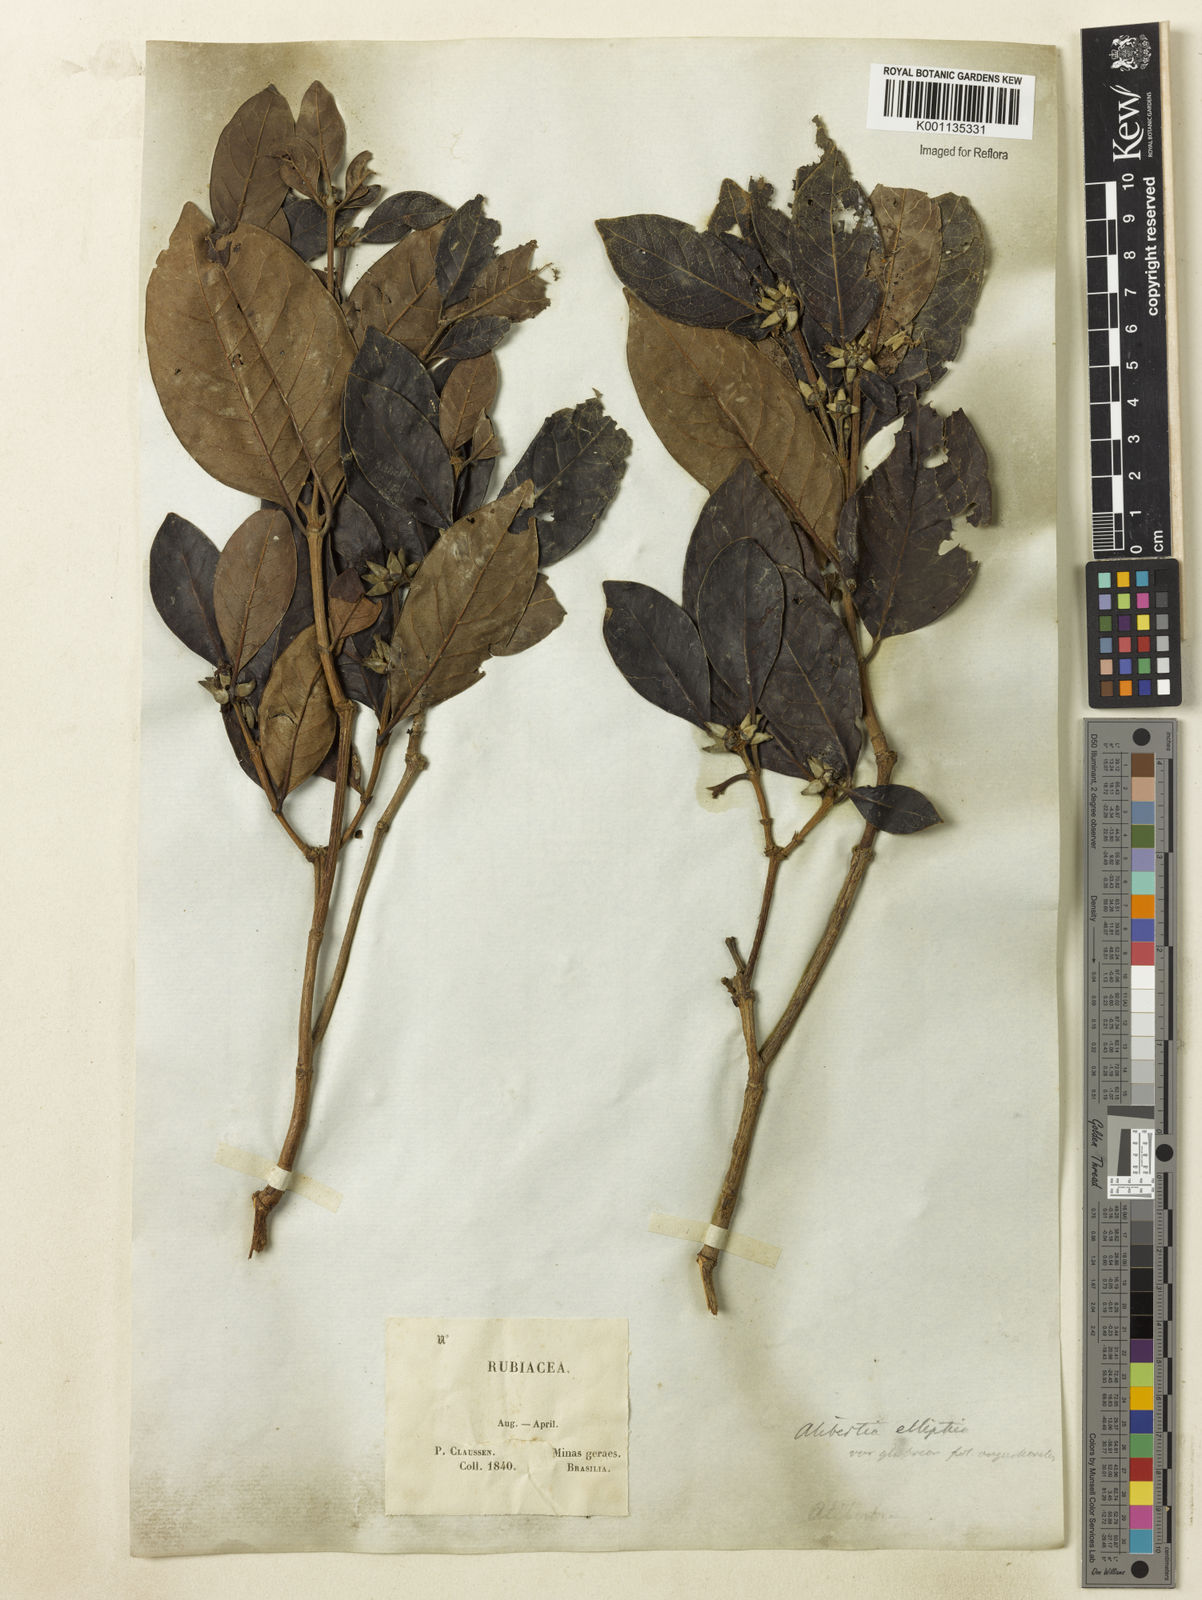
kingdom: Plantae
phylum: Tracheophyta
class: Magnoliopsida
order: Gentianales
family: Rubiaceae
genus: Cordiera
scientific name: Cordiera elliptica
